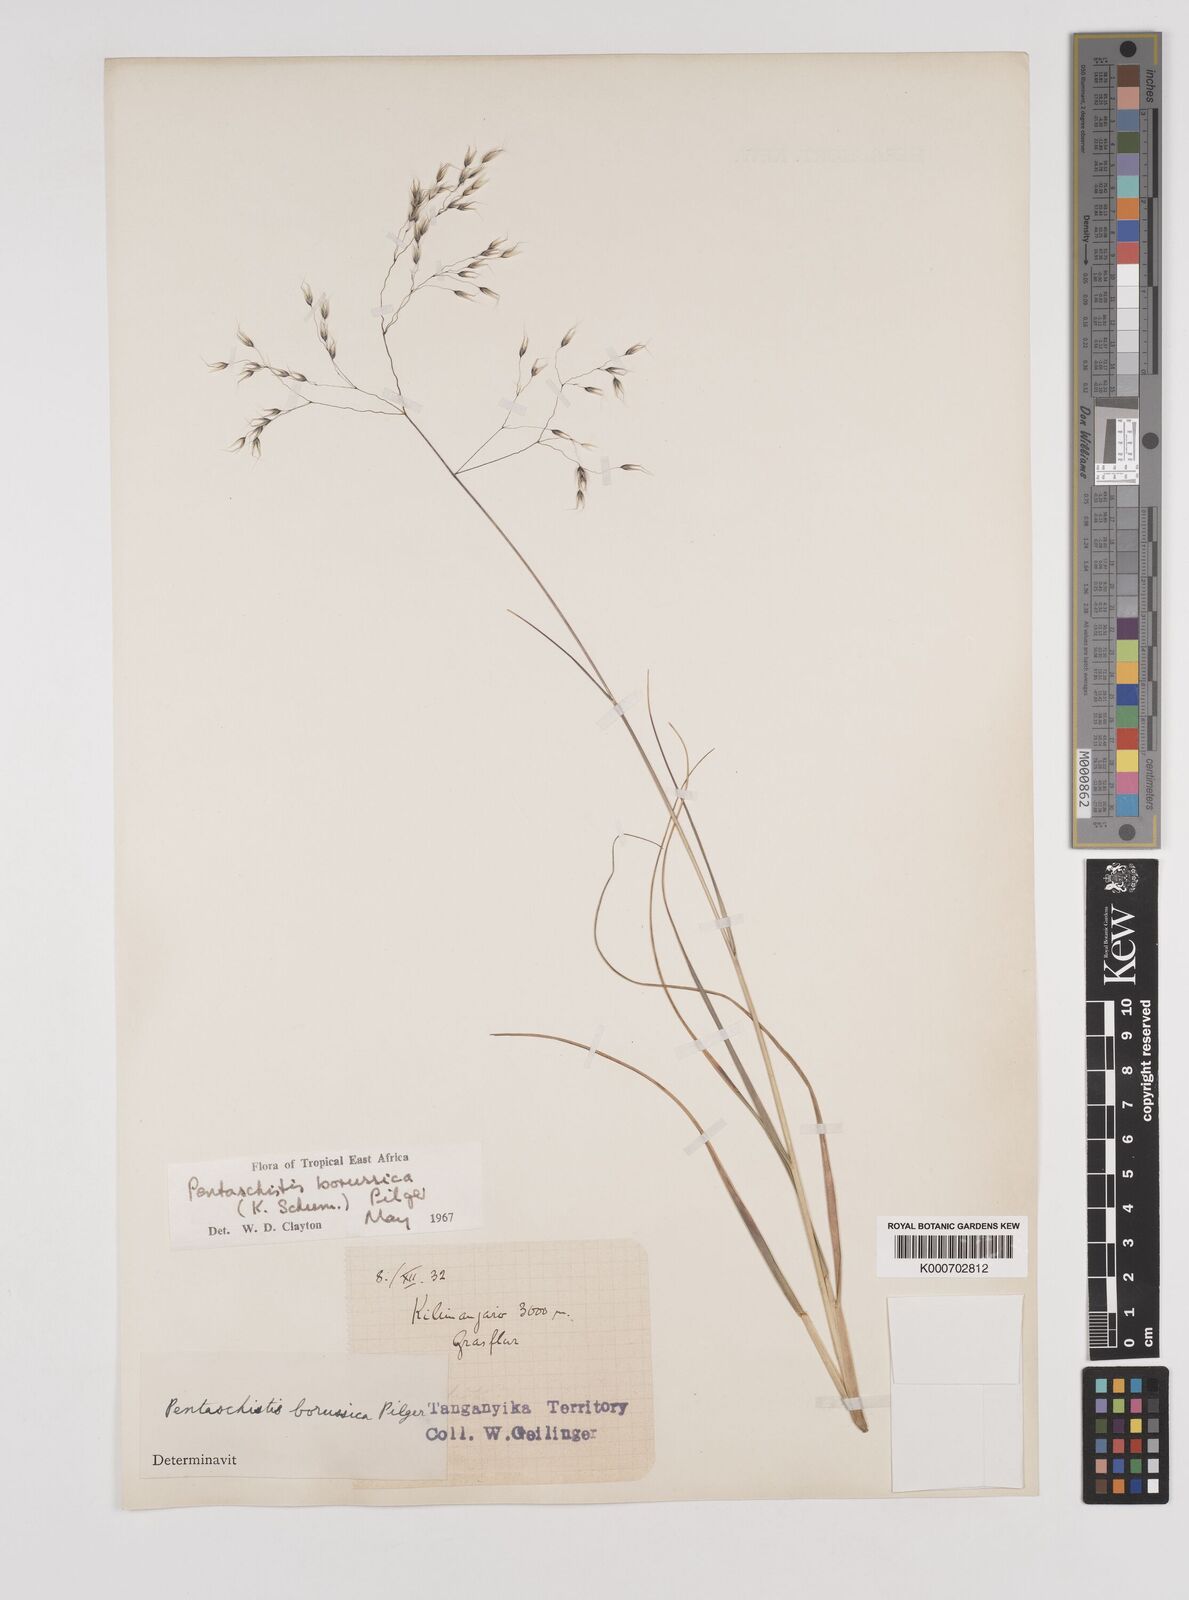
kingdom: Plantae
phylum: Tracheophyta
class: Liliopsida
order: Poales
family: Poaceae
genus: Pentameris
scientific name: Pentameris borussica
